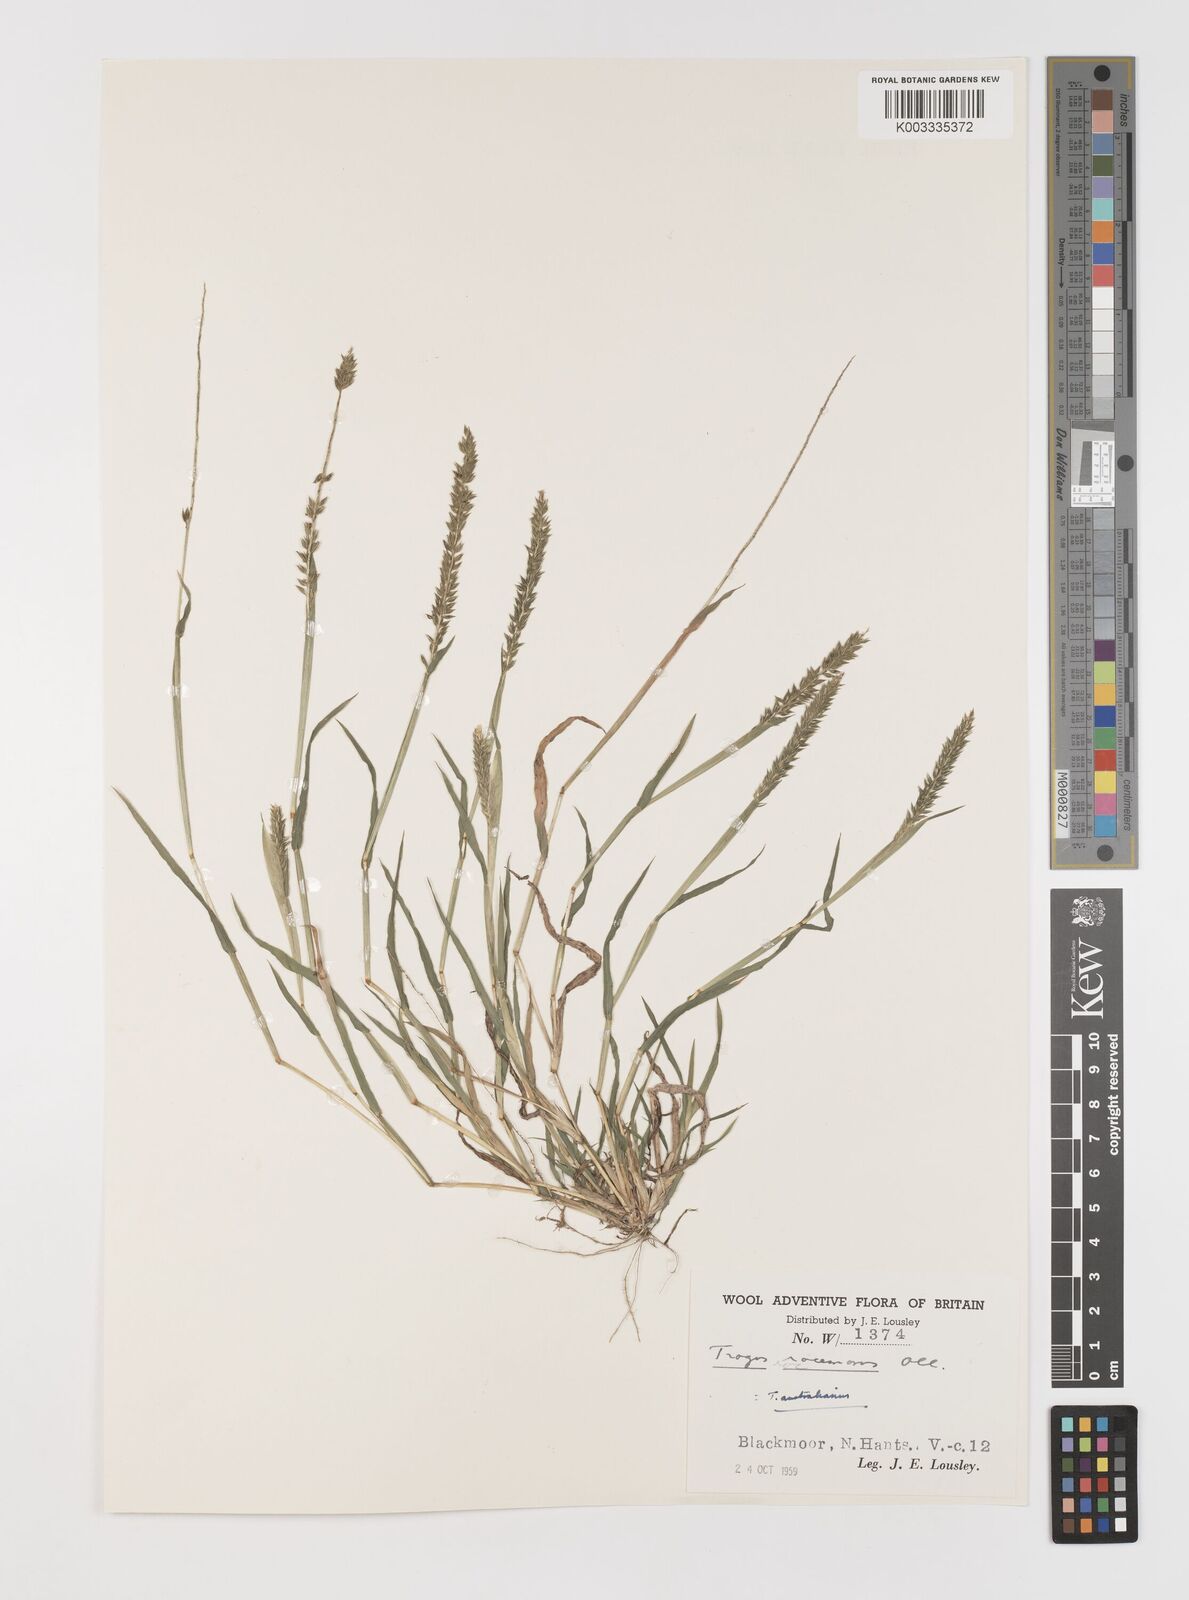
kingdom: Plantae
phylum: Tracheophyta
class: Liliopsida
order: Poales
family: Poaceae
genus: Tragus
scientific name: Tragus australianus
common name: Australian bur-grass
